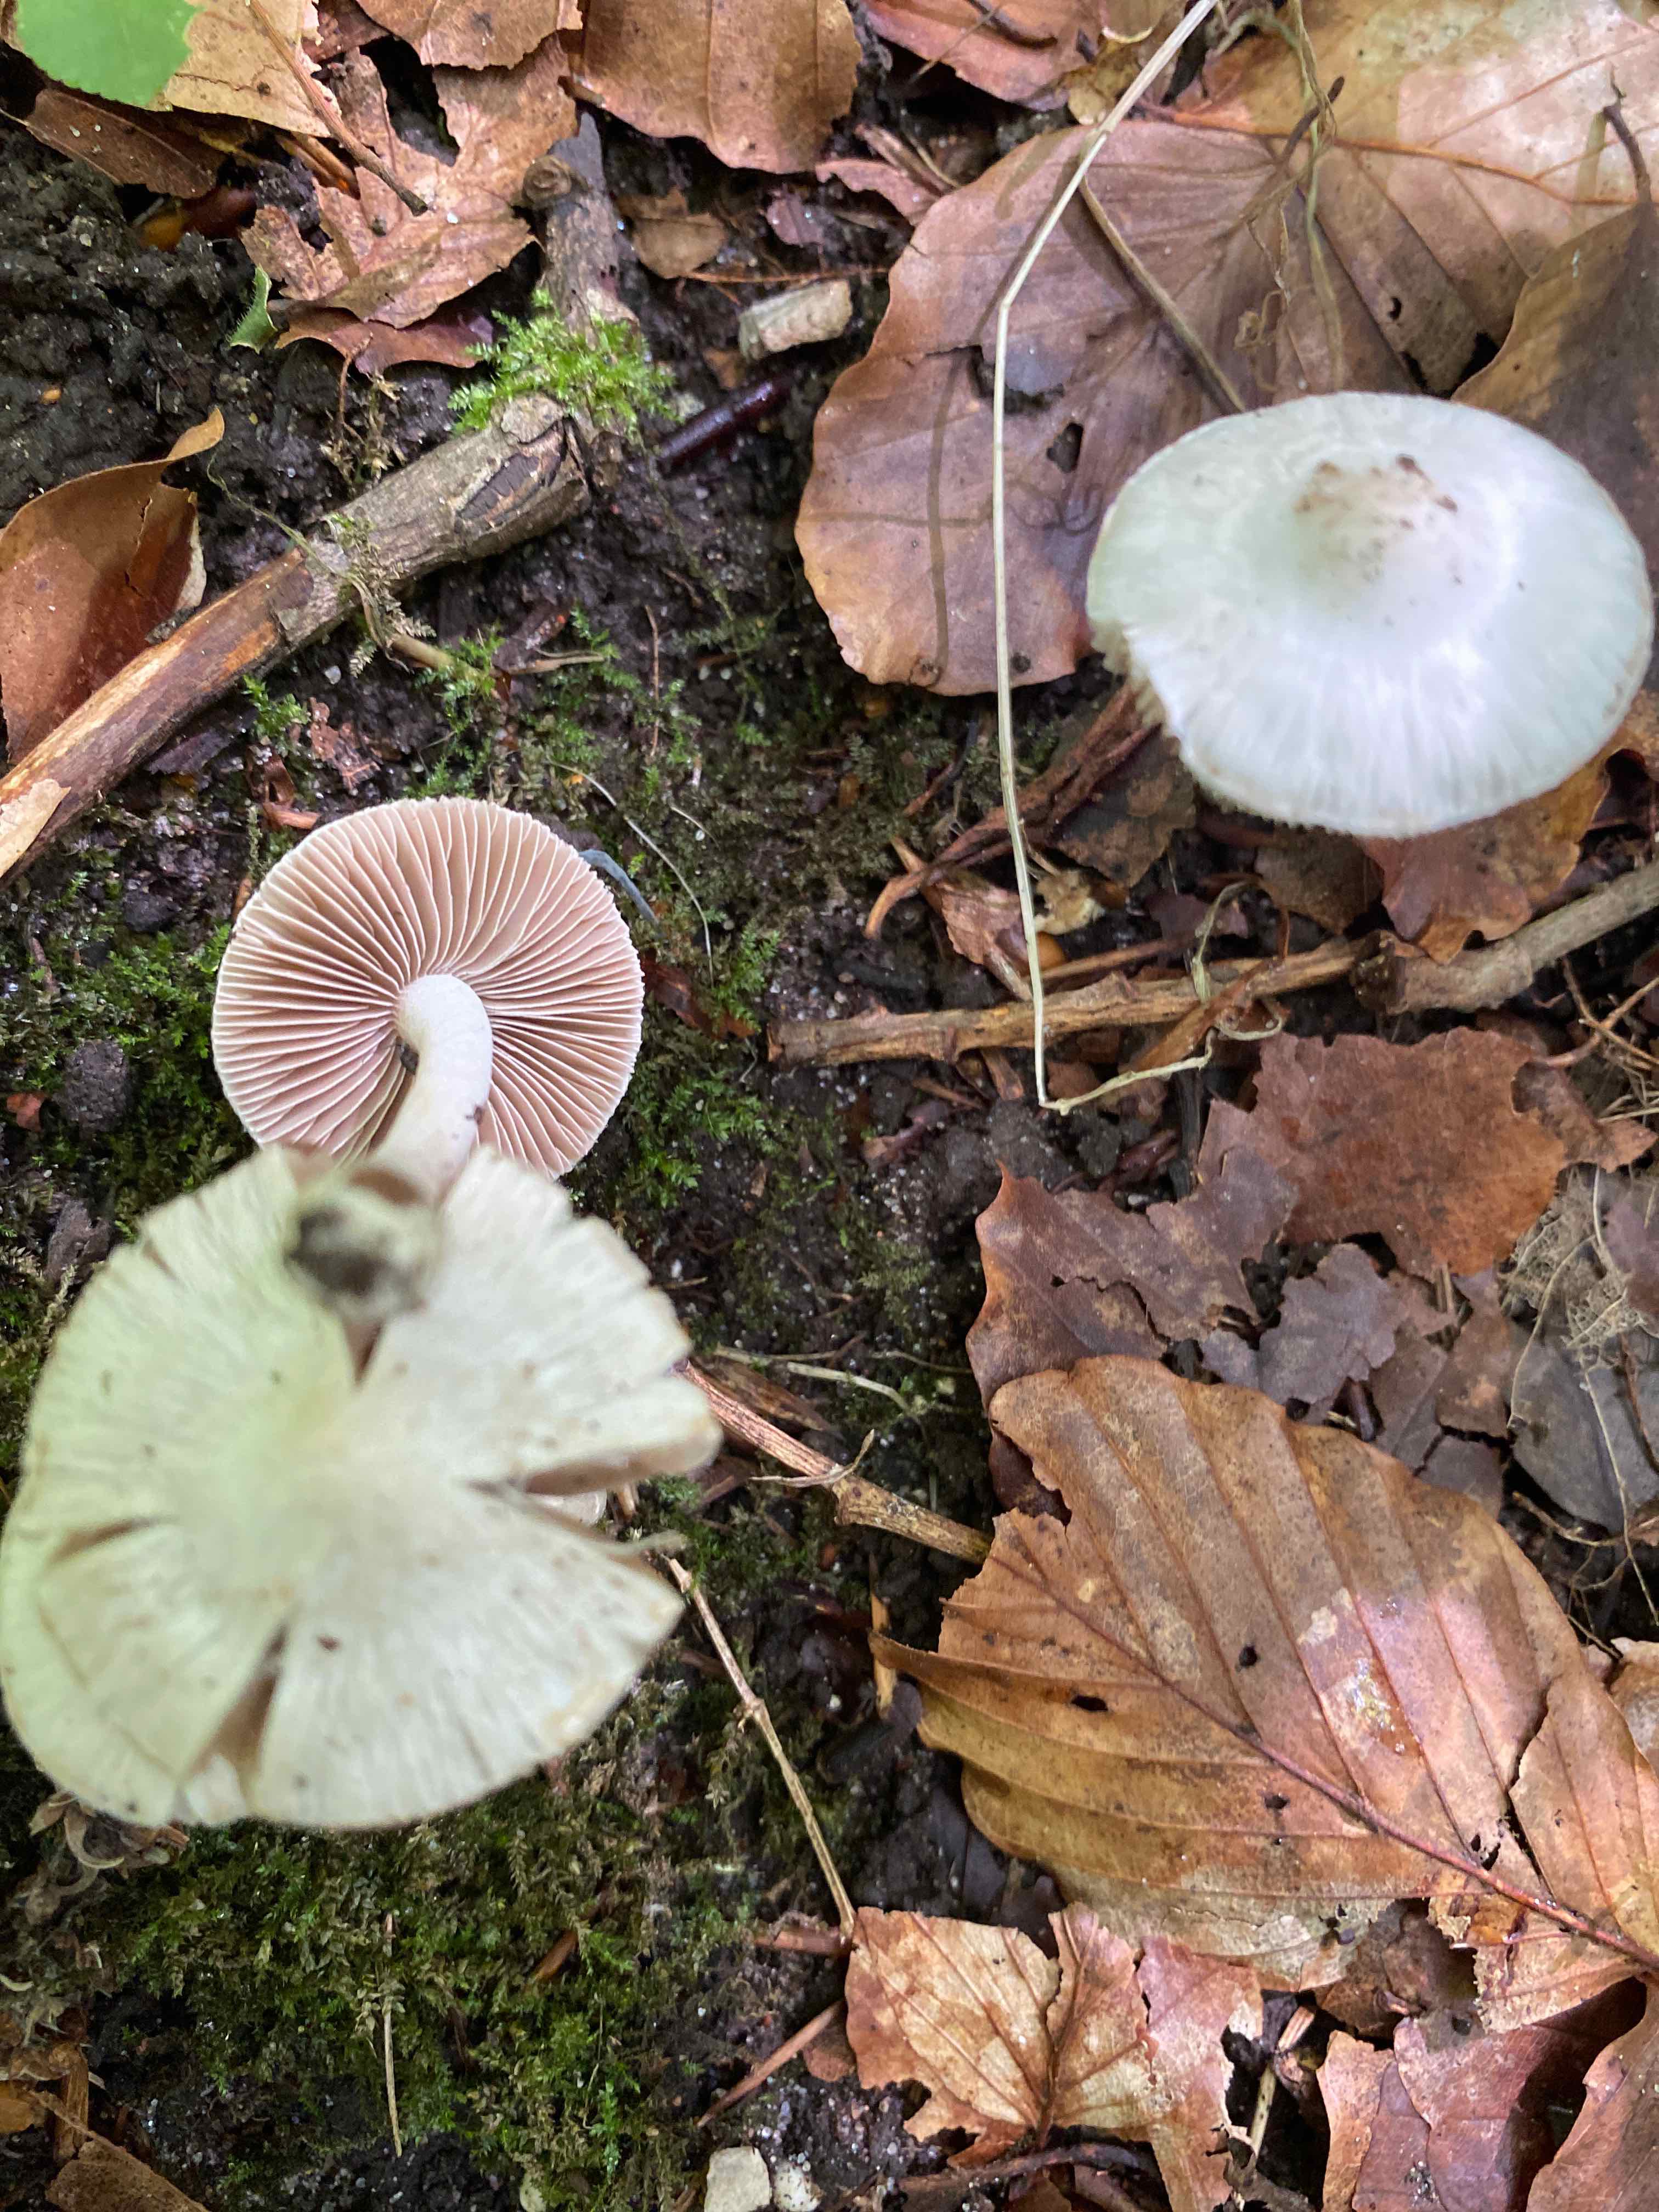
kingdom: Fungi
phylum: Basidiomycota
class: Agaricomycetes
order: Agaricales
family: Inocybaceae
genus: Inocybe
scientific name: Inocybe
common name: almindelig trævlhat
